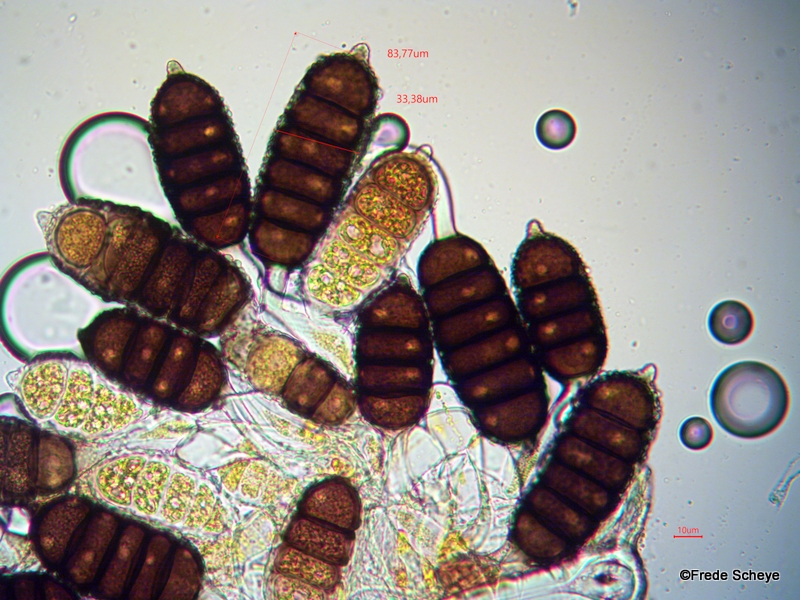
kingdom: Fungi
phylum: Basidiomycota
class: Pucciniomycetes
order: Pucciniales
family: Phragmidiaceae
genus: Phragmidium
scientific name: Phragmidium rubi-idaei
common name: hindbær-flercellerust
